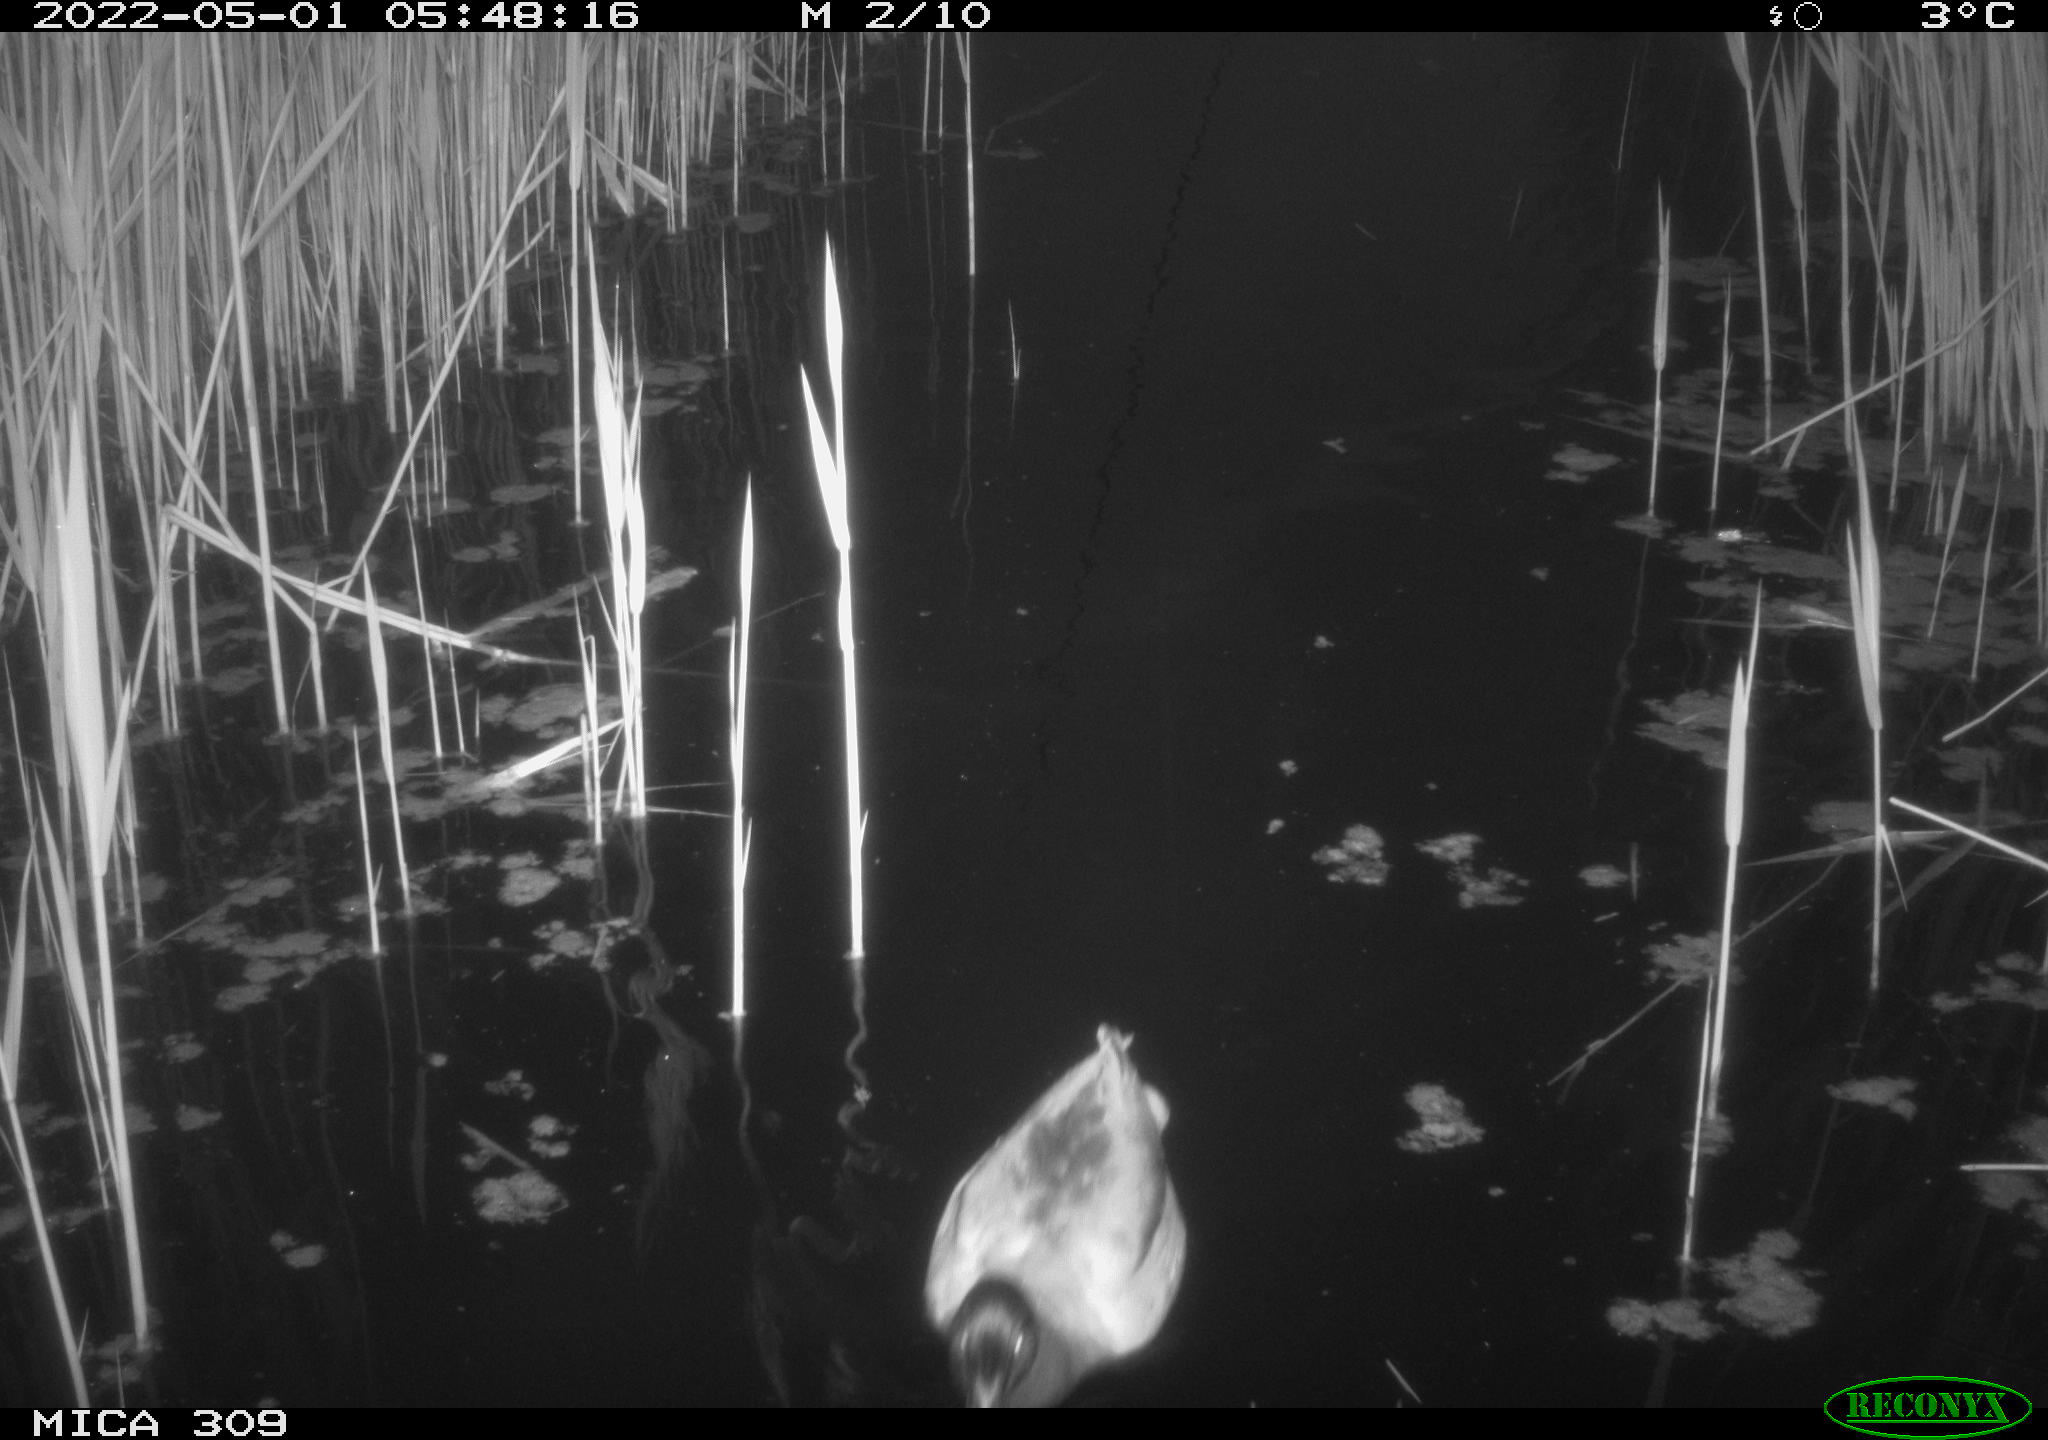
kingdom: Animalia
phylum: Chordata
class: Aves
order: Anseriformes
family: Anatidae
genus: Anas
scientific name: Anas platyrhynchos
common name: Mallard
